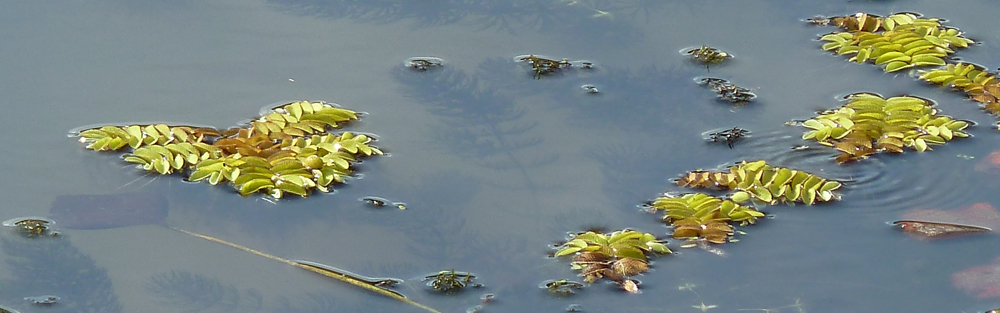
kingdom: Plantae
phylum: Tracheophyta
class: Polypodiopsida
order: Salviniales
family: Salviniaceae
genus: Salvinia
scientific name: Salvinia natans
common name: Floating fern
